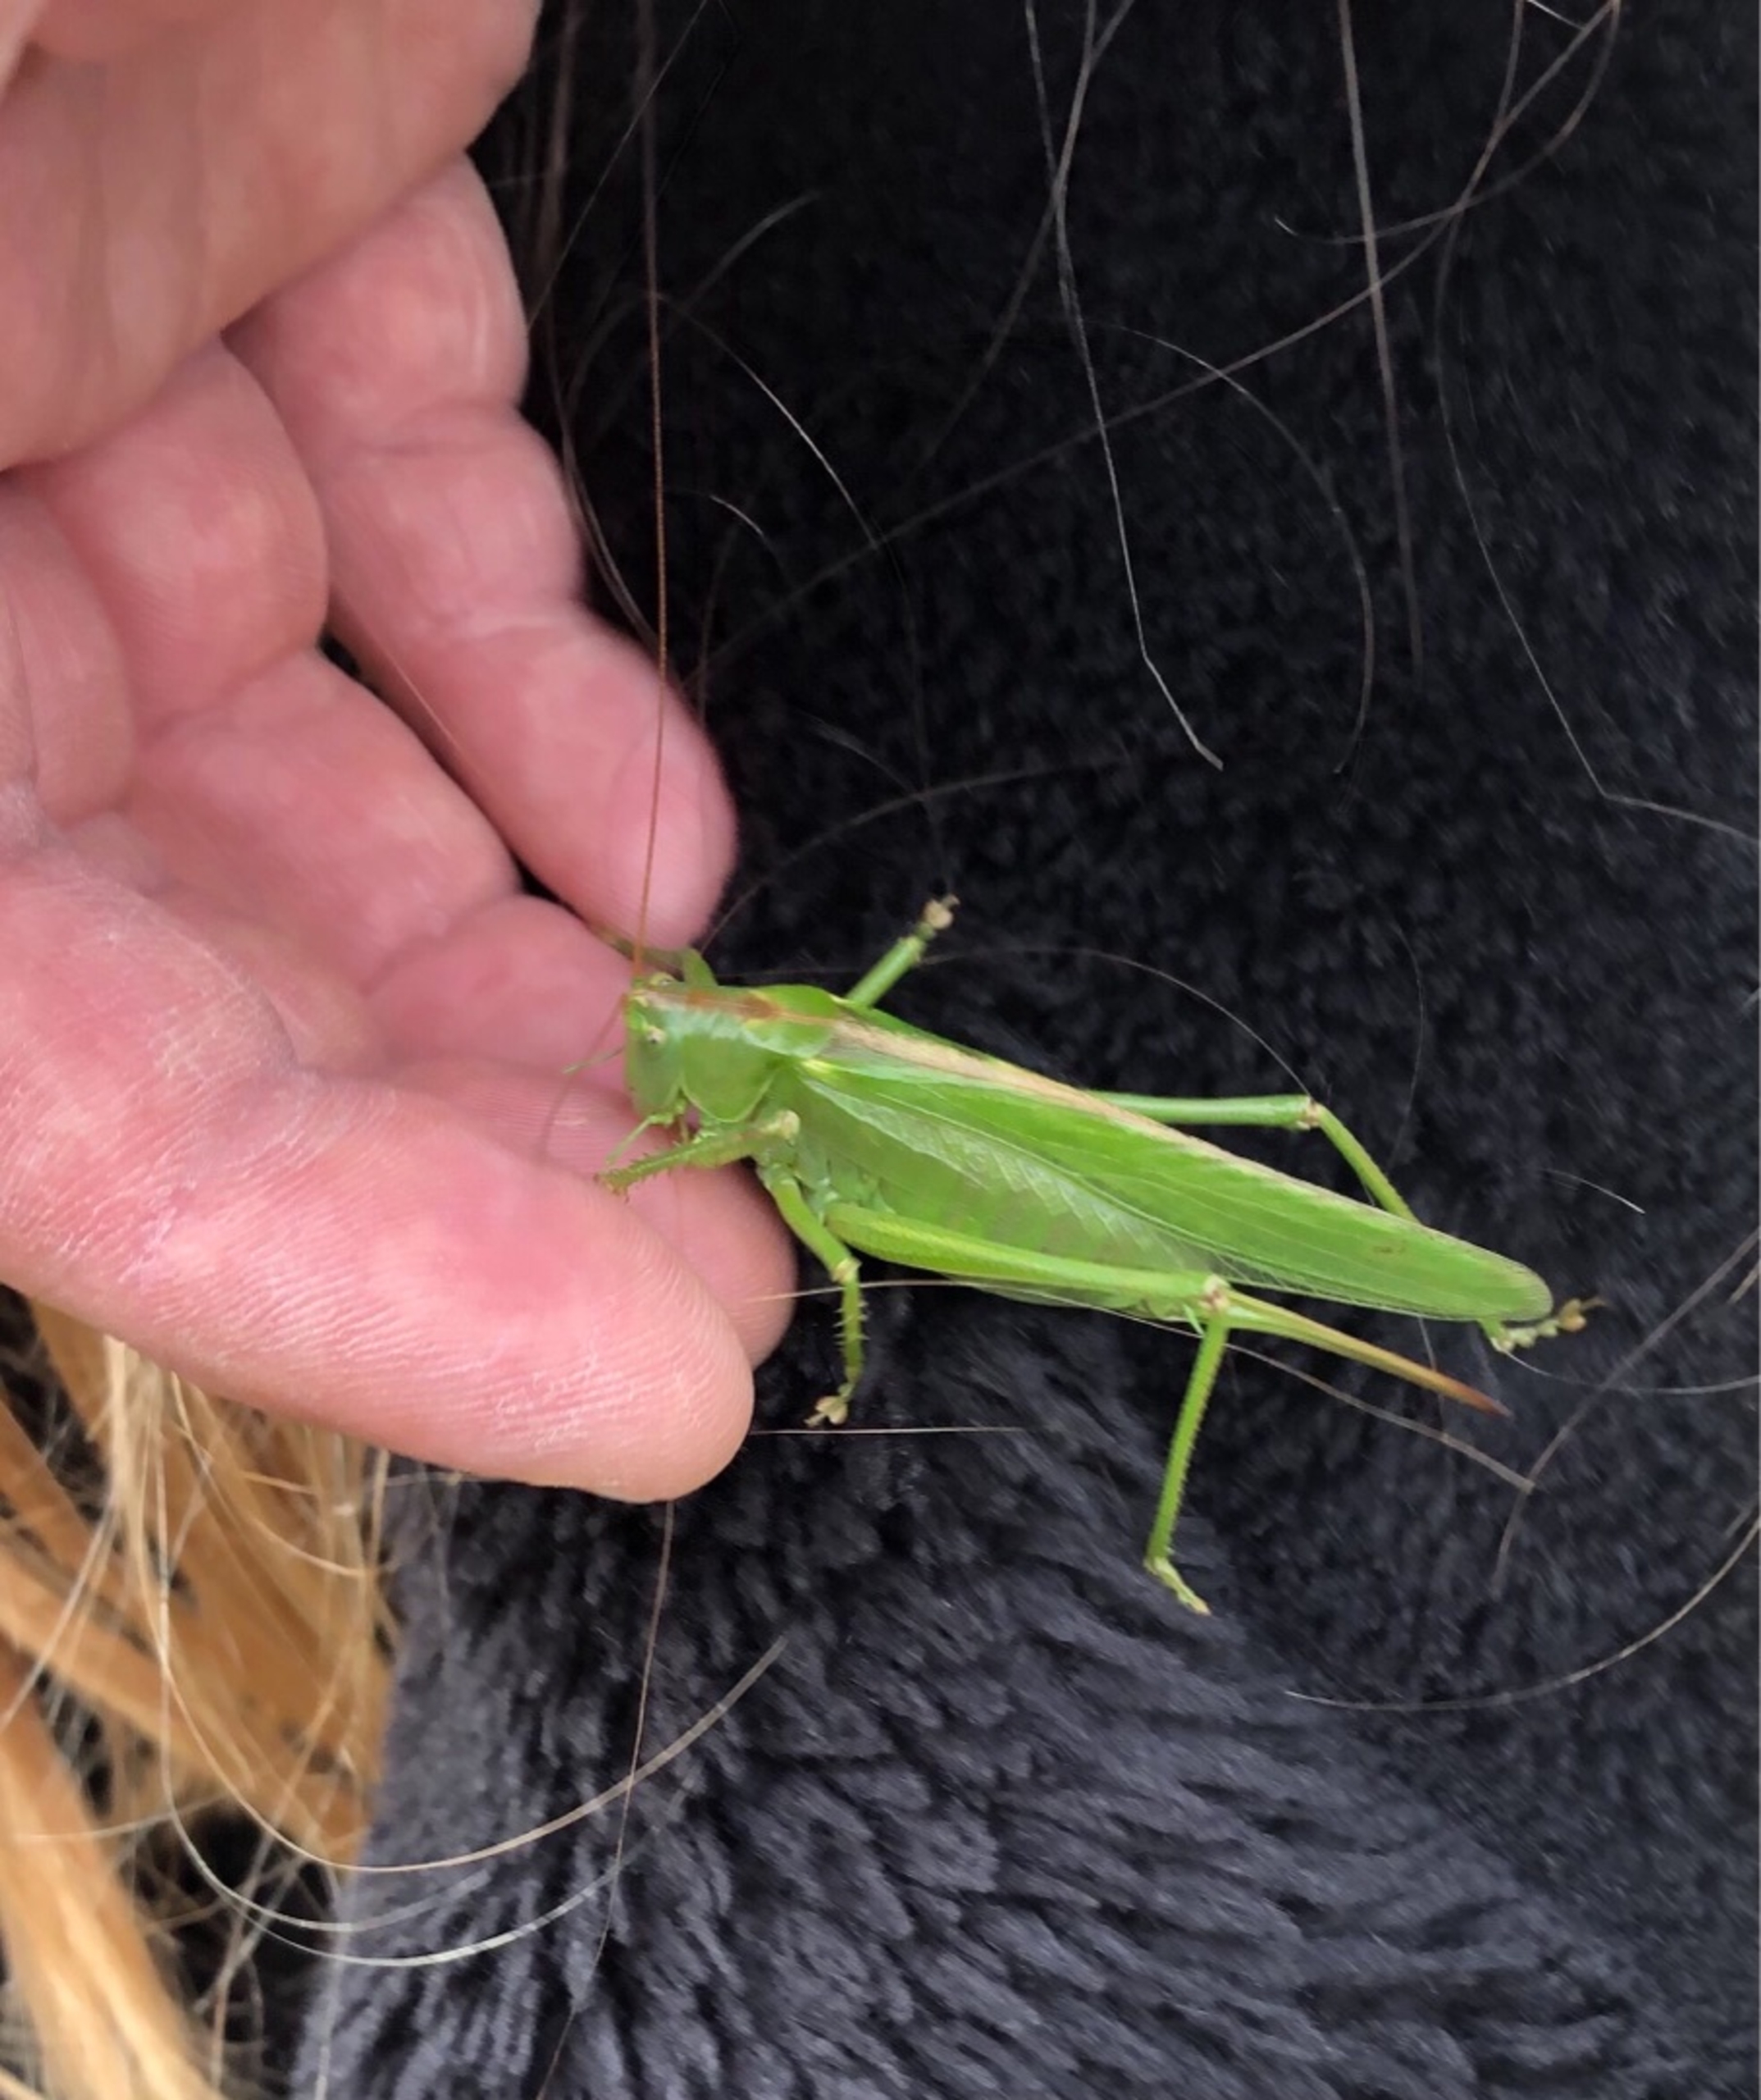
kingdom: Animalia
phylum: Arthropoda
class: Insecta
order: Orthoptera
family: Tettigoniidae
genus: Tettigonia
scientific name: Tettigonia viridissima
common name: Stor grøn løvgræshoppe
